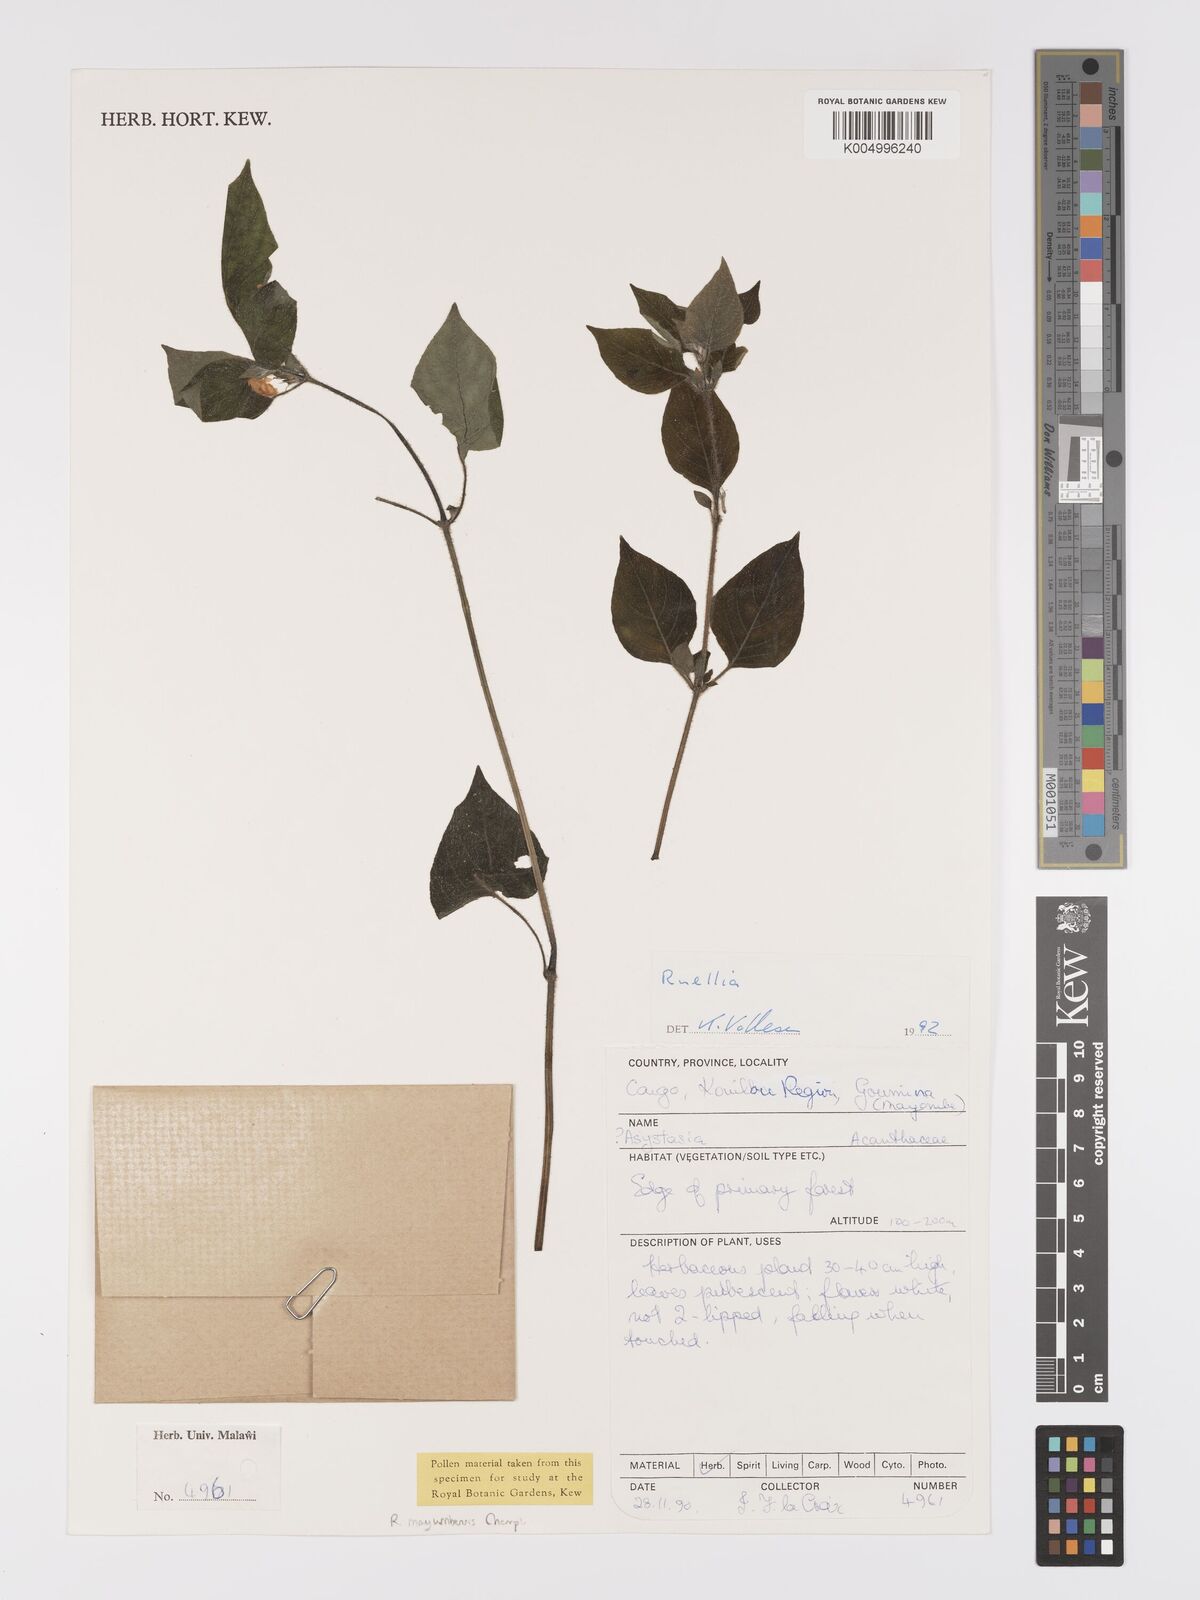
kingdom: Plantae
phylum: Tracheophyta
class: Magnoliopsida
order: Lamiales
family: Acanthaceae
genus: Ruellia
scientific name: Ruellia
